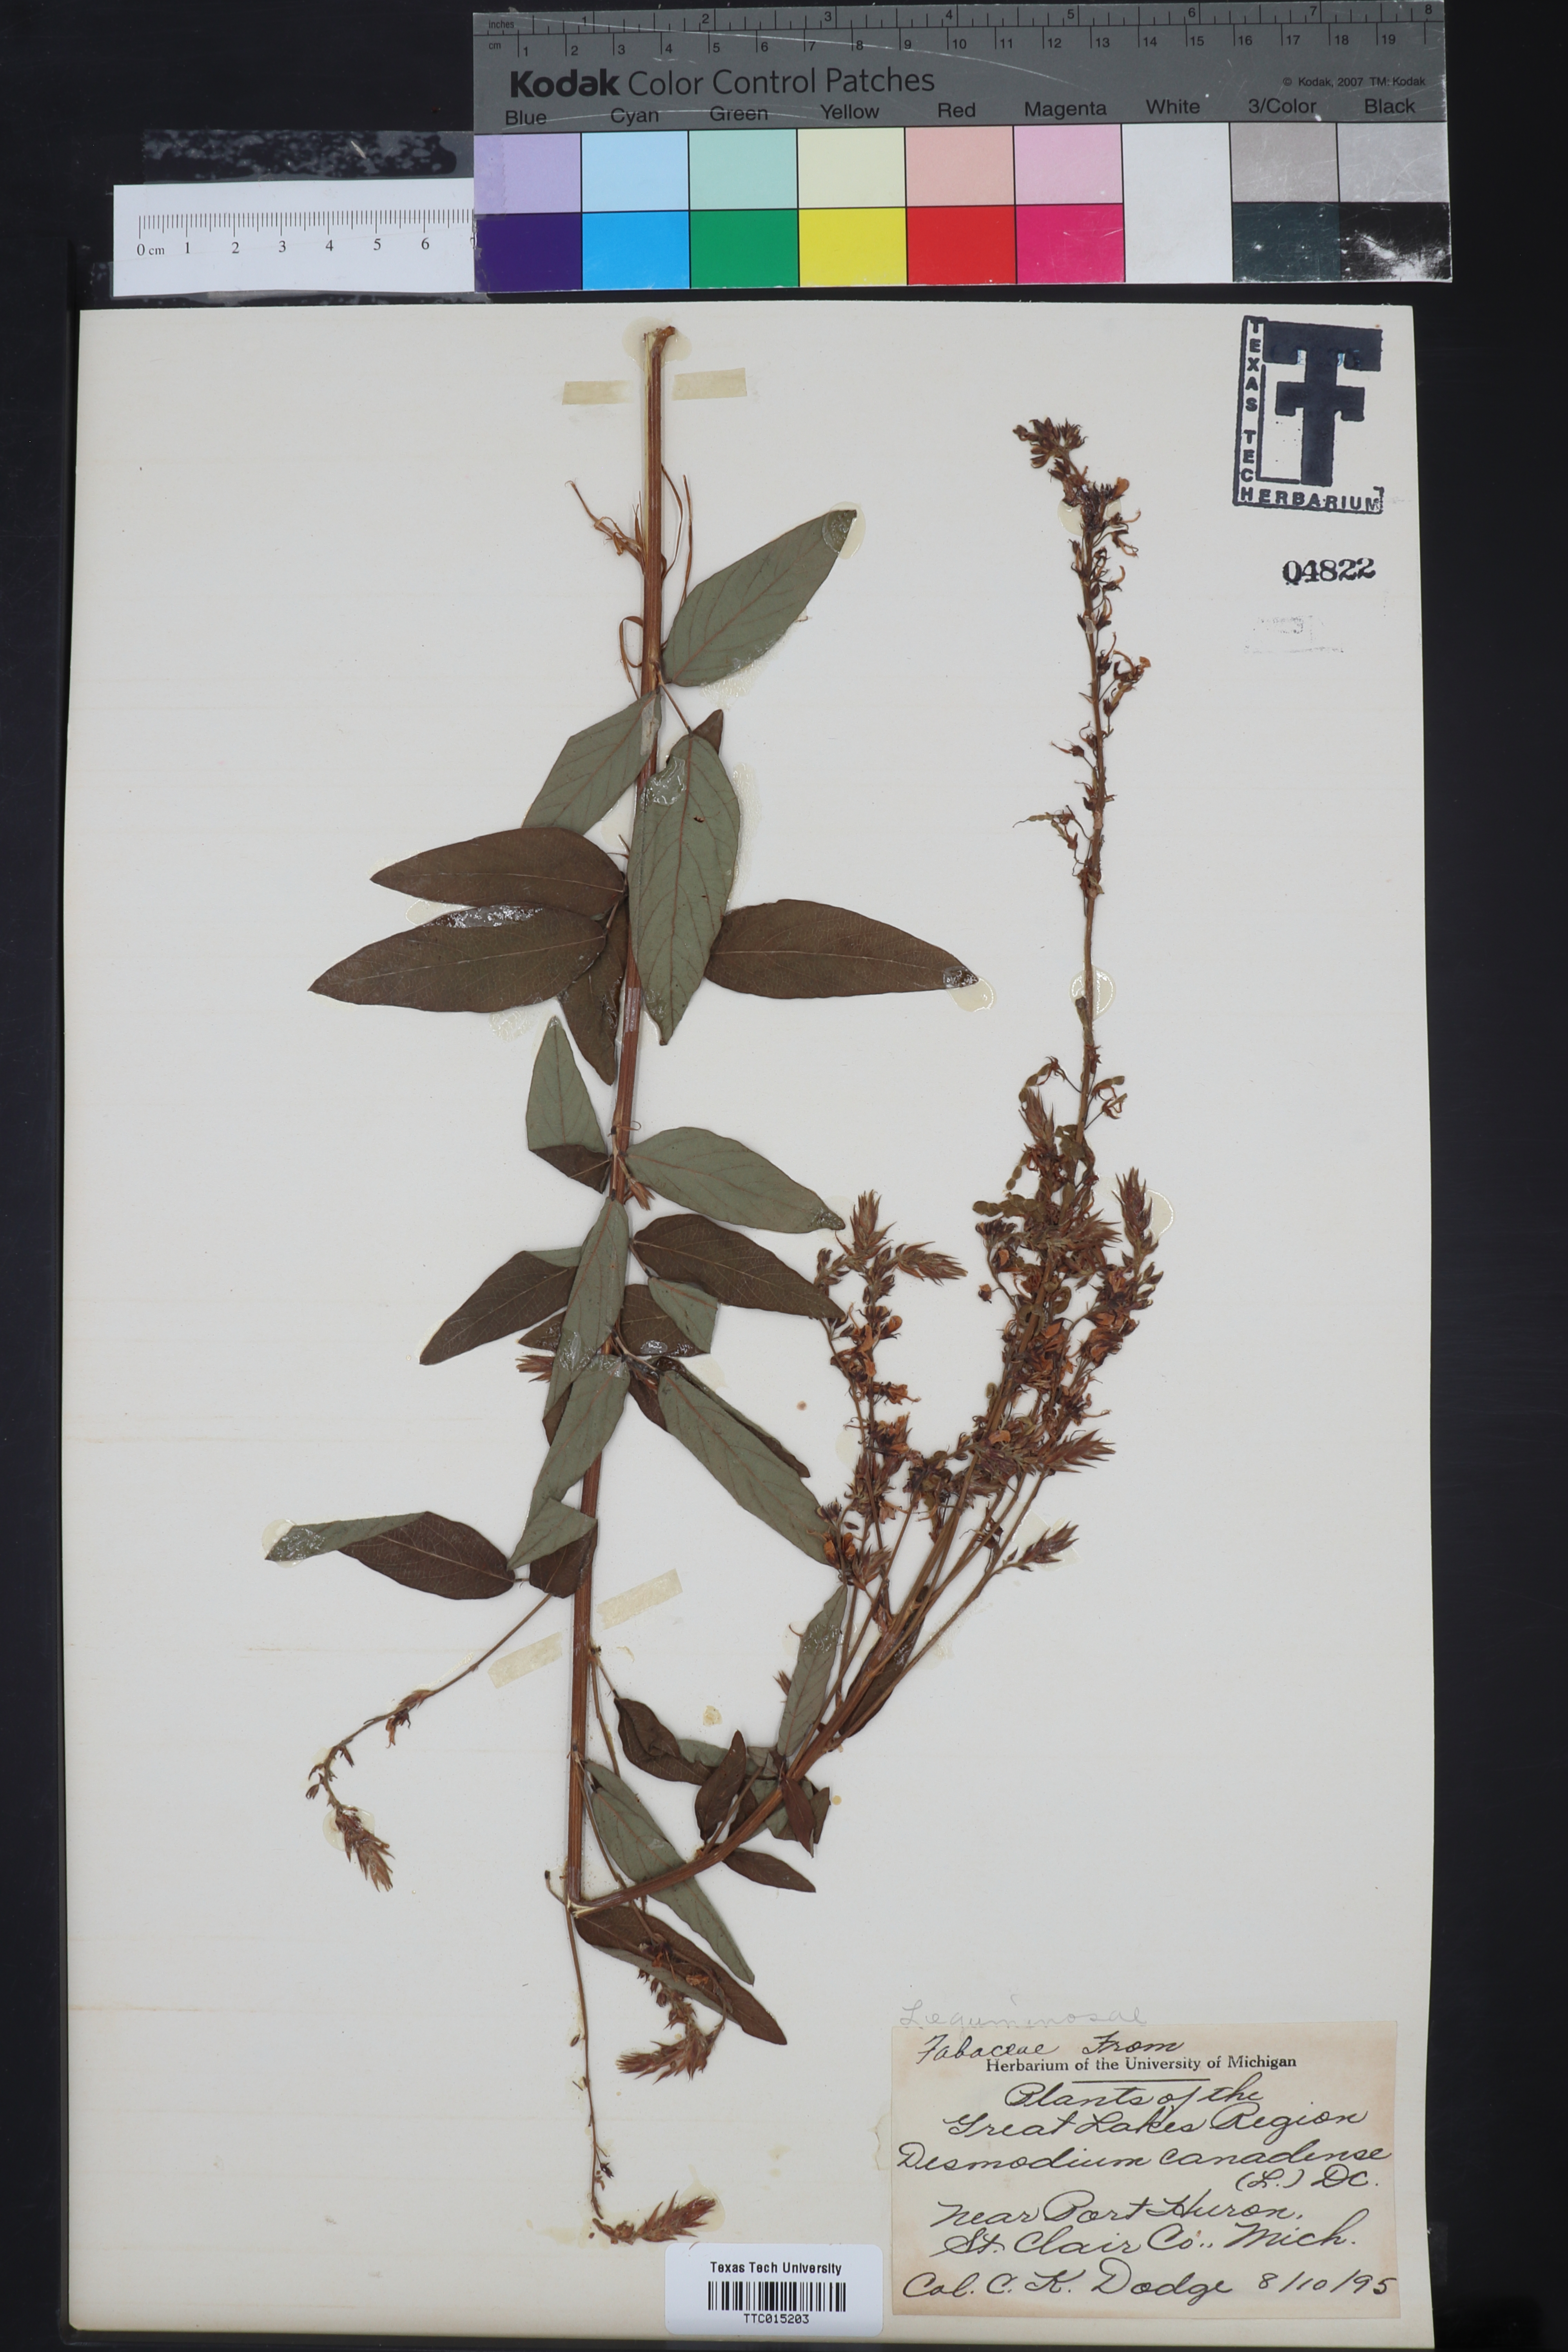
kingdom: Plantae
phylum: Tracheophyta
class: Magnoliopsida
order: Fabales
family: Fabaceae
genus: Desmodium
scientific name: Desmodium perplexum
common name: Perplexed tick trefoil
